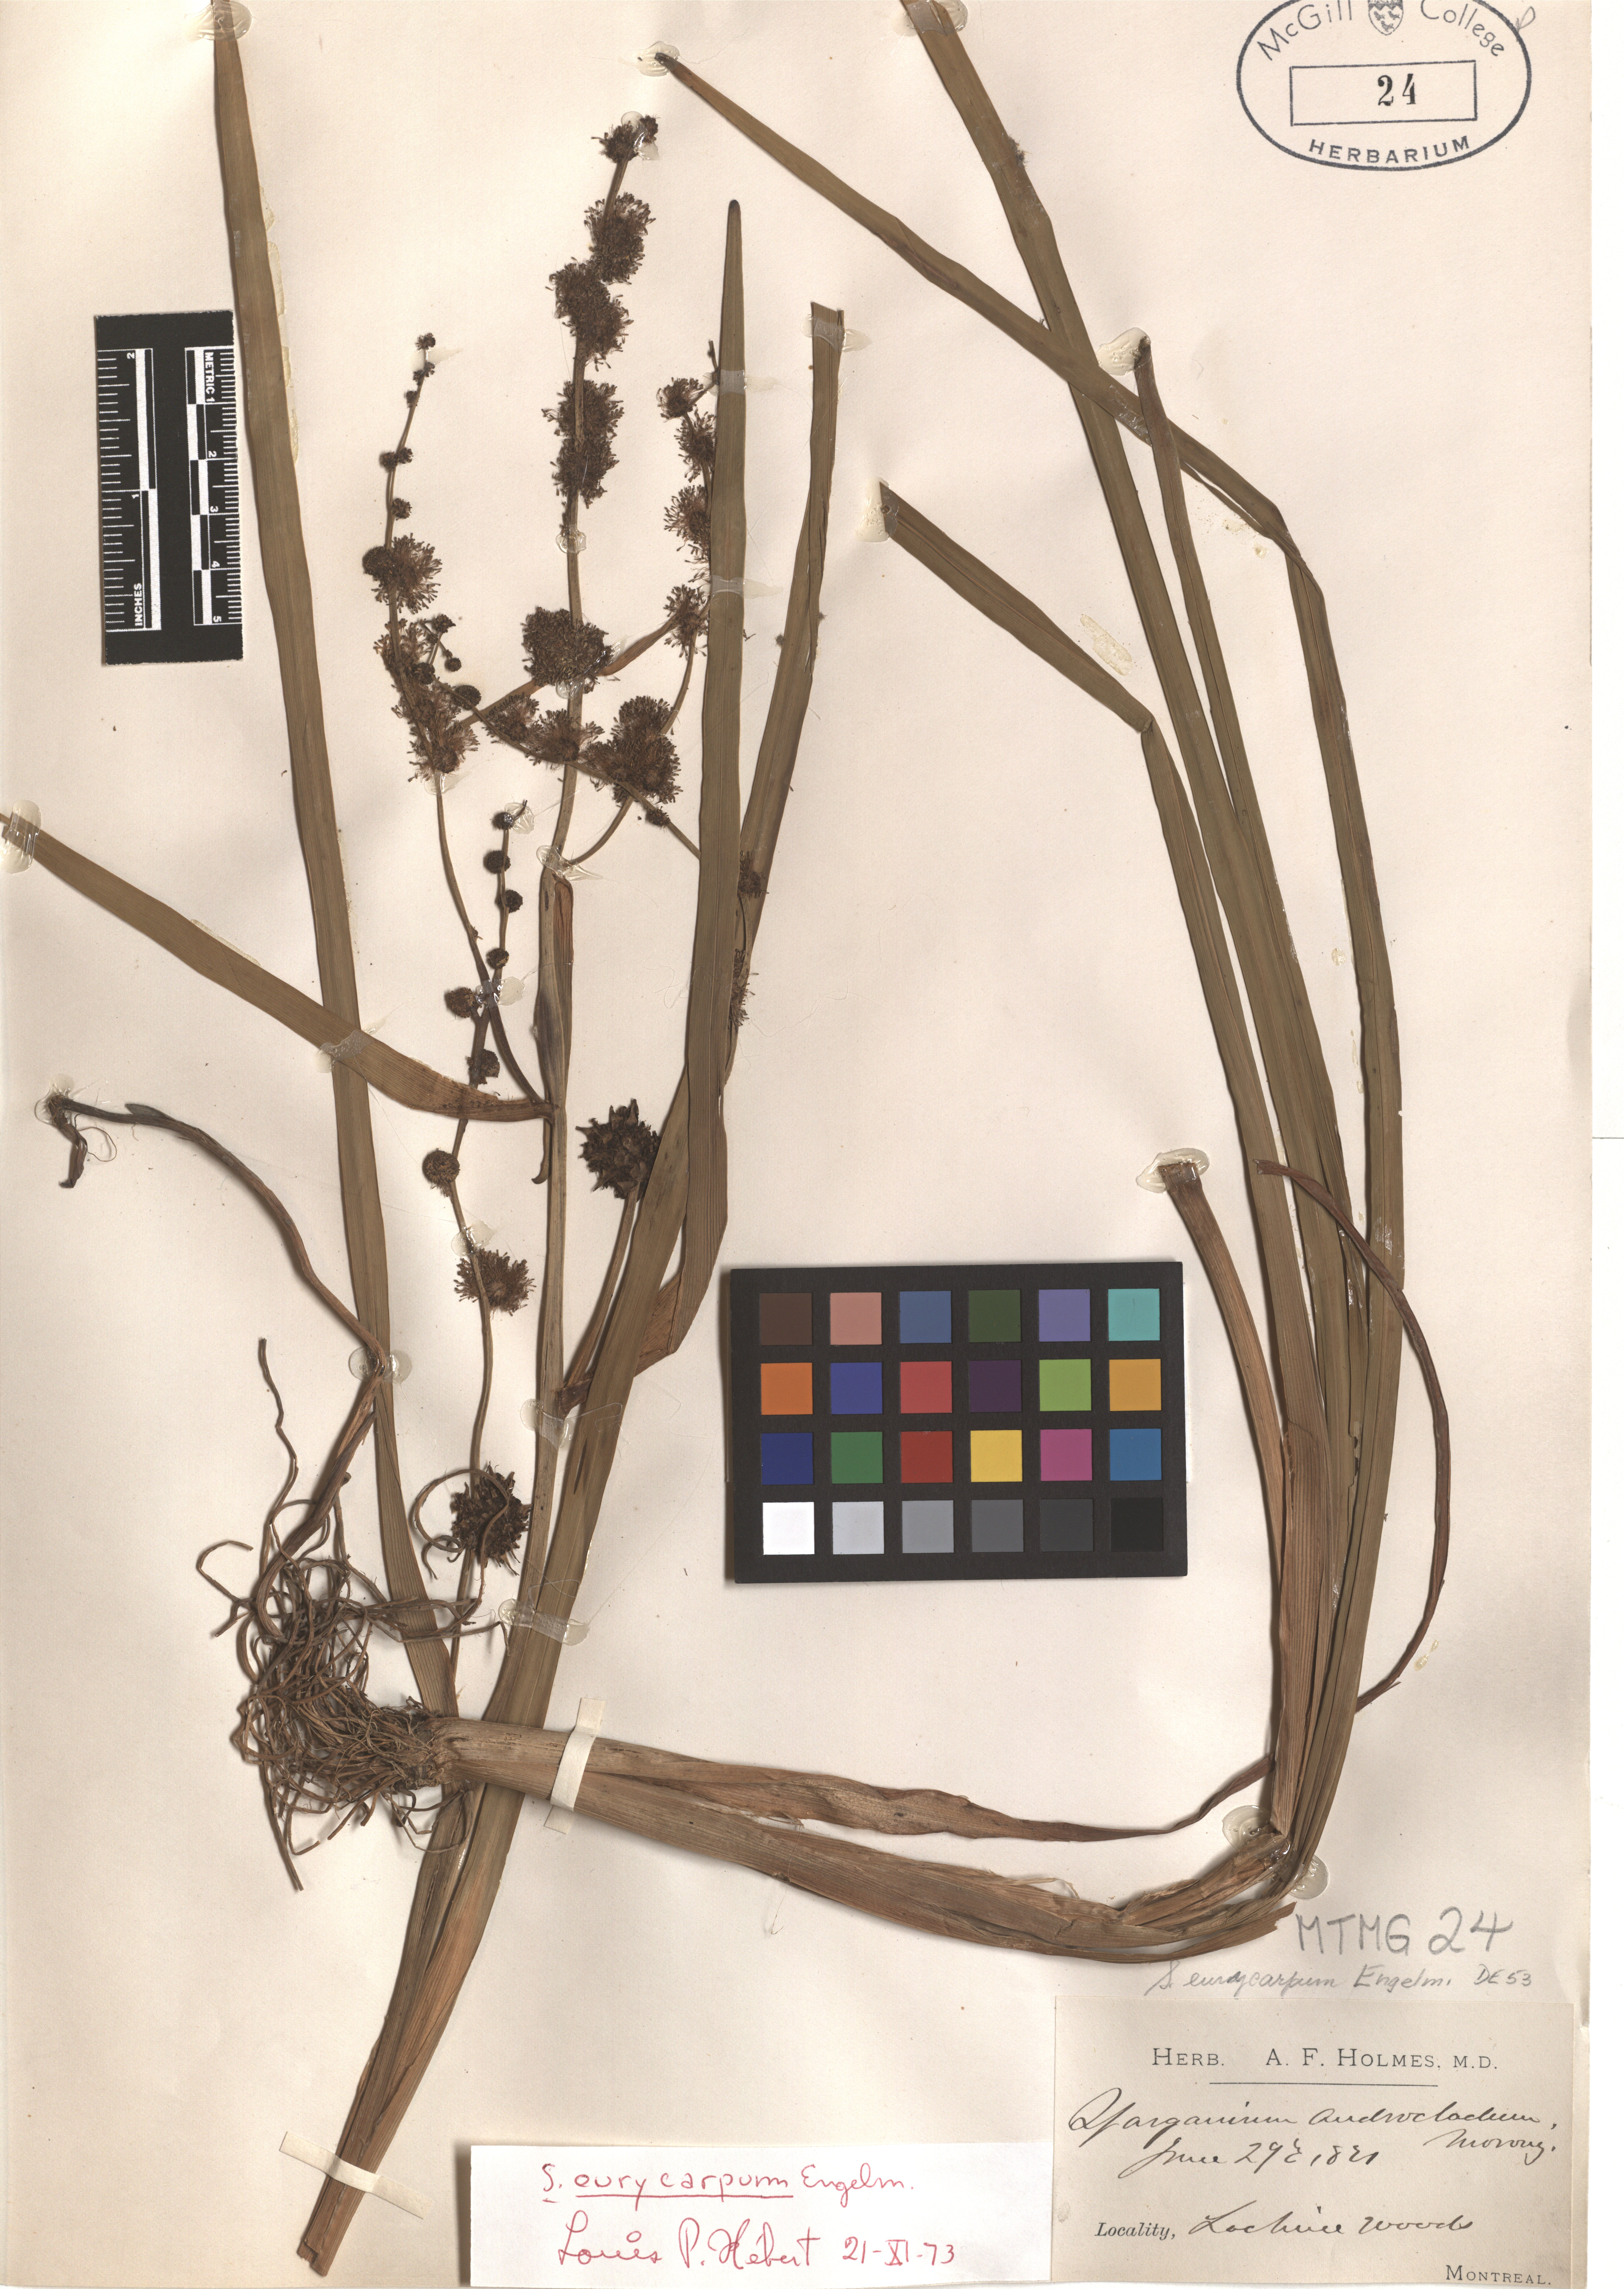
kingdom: Plantae
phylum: Tracheophyta
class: Liliopsida
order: Poales
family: Typhaceae
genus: Sparganium
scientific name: Sparganium eurycarpum
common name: Broad-fruited burreed
